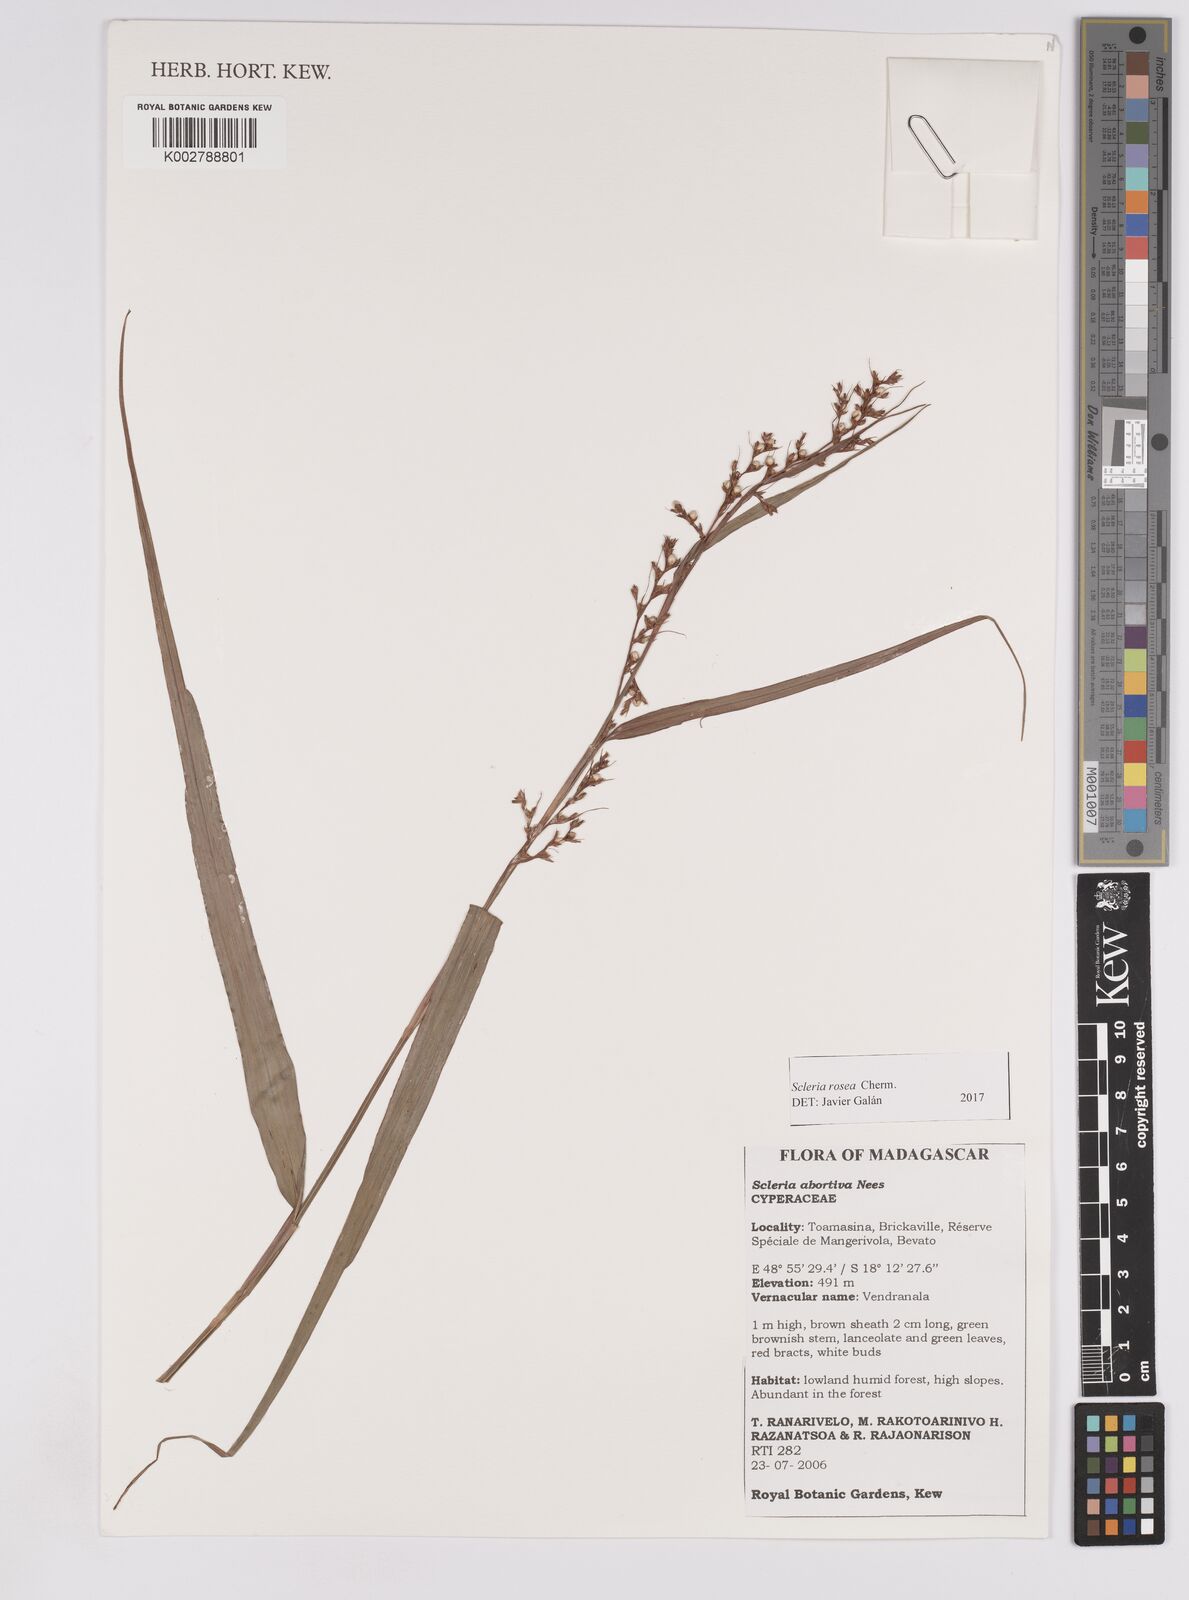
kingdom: Plantae
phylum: Tracheophyta
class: Liliopsida
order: Poales
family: Cyperaceae
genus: Scleria
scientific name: Scleria trialata
